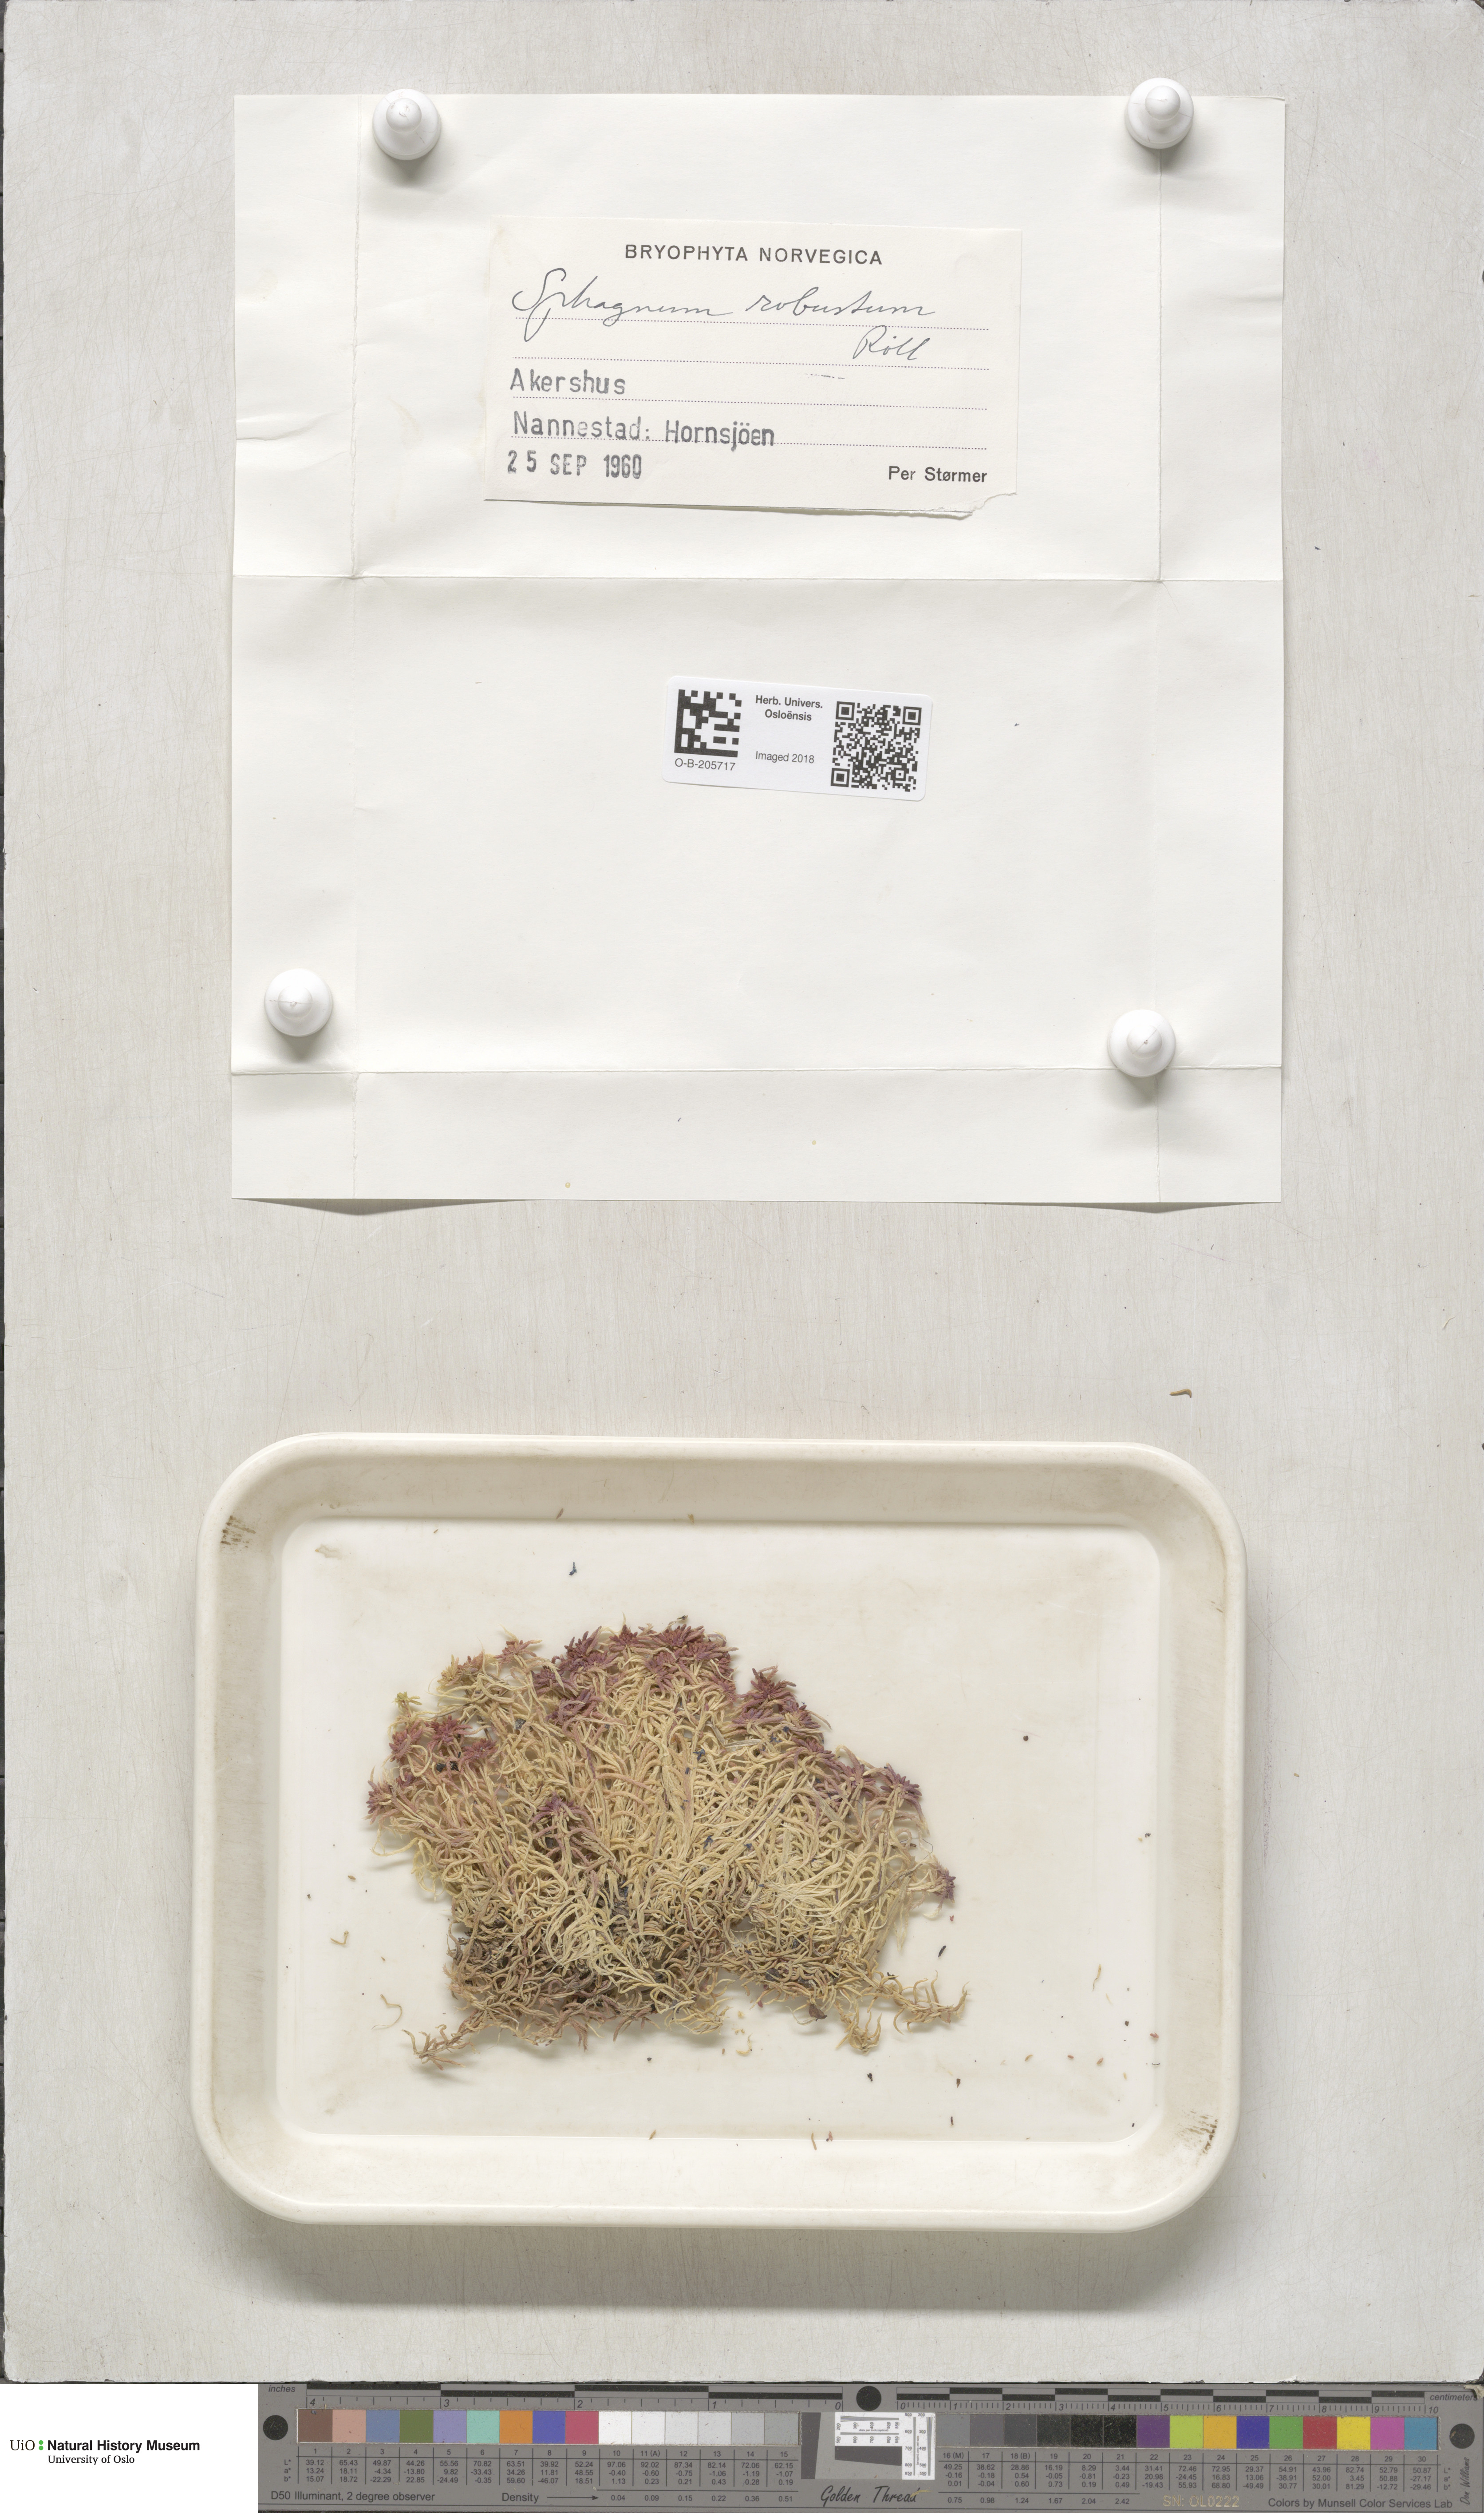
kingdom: Plantae
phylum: Bryophyta
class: Sphagnopsida
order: Sphagnales
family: Sphagnaceae
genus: Sphagnum
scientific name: Sphagnum russowii
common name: Russow's peat moss
